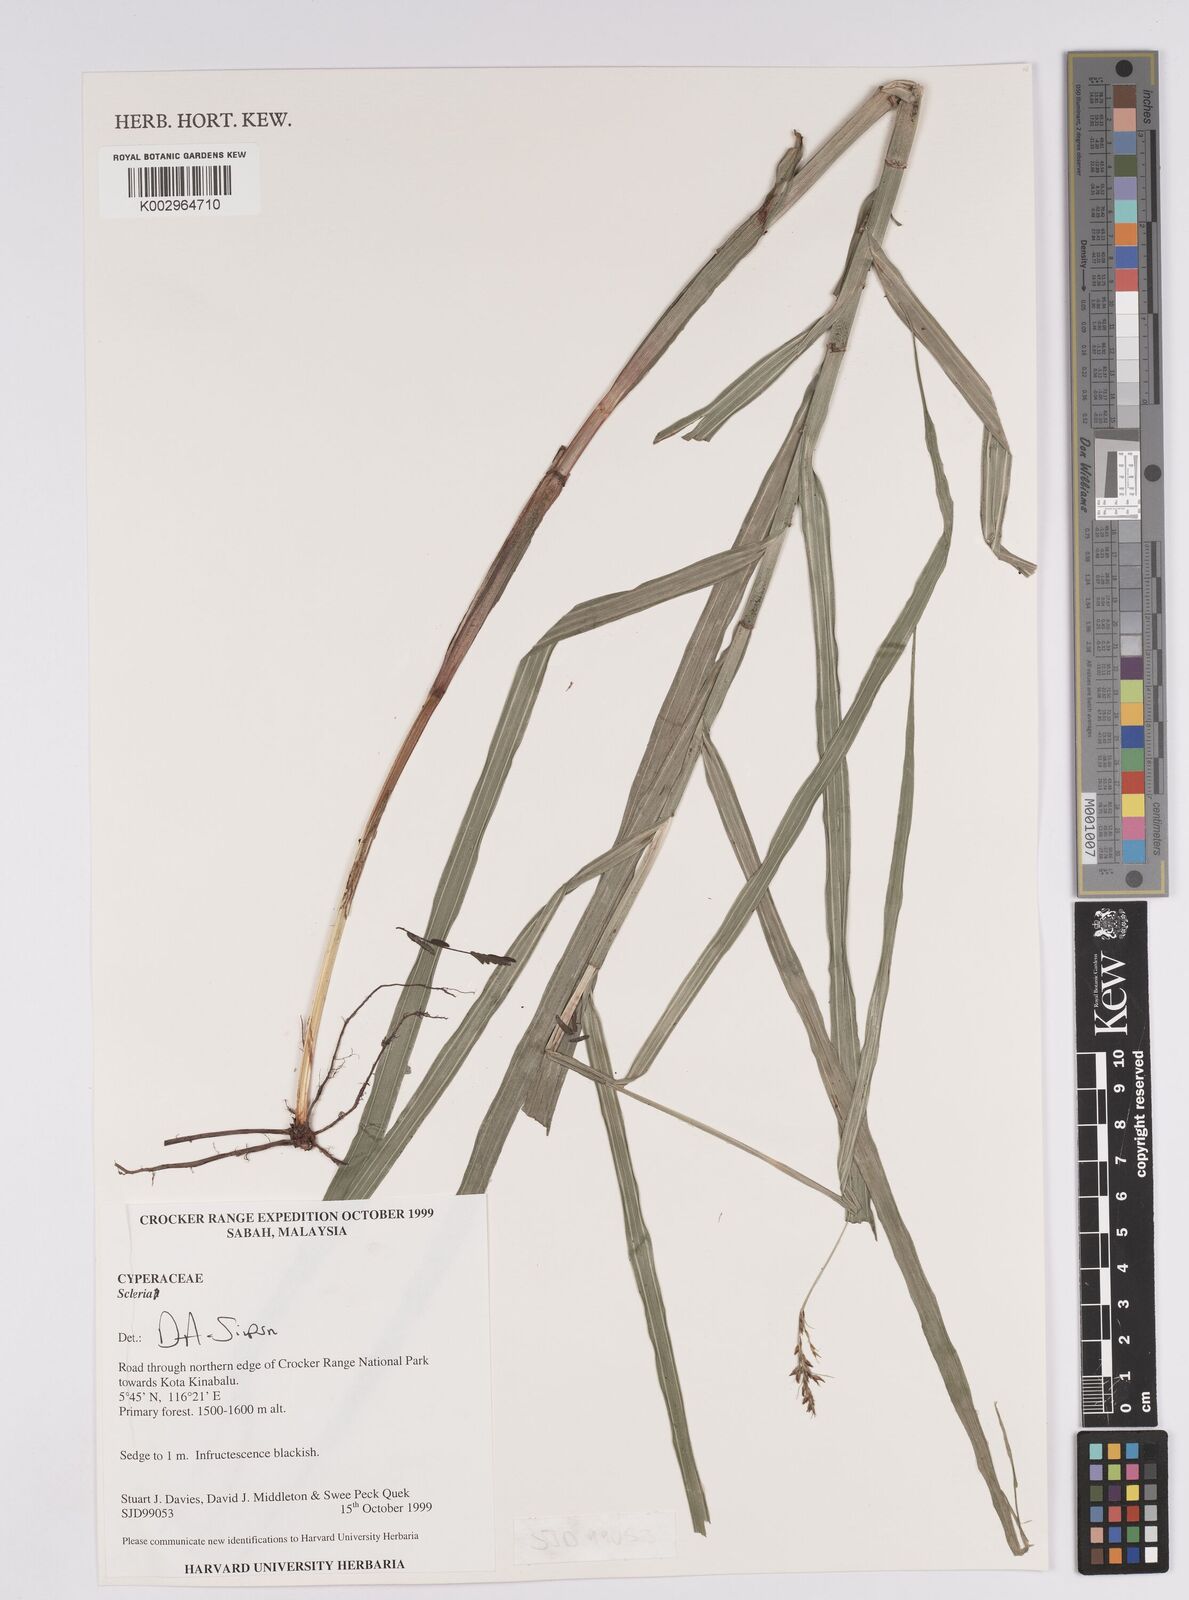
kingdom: Plantae
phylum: Tracheophyta
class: Liliopsida
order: Poales
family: Cyperaceae
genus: Scleria
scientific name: Scleria
